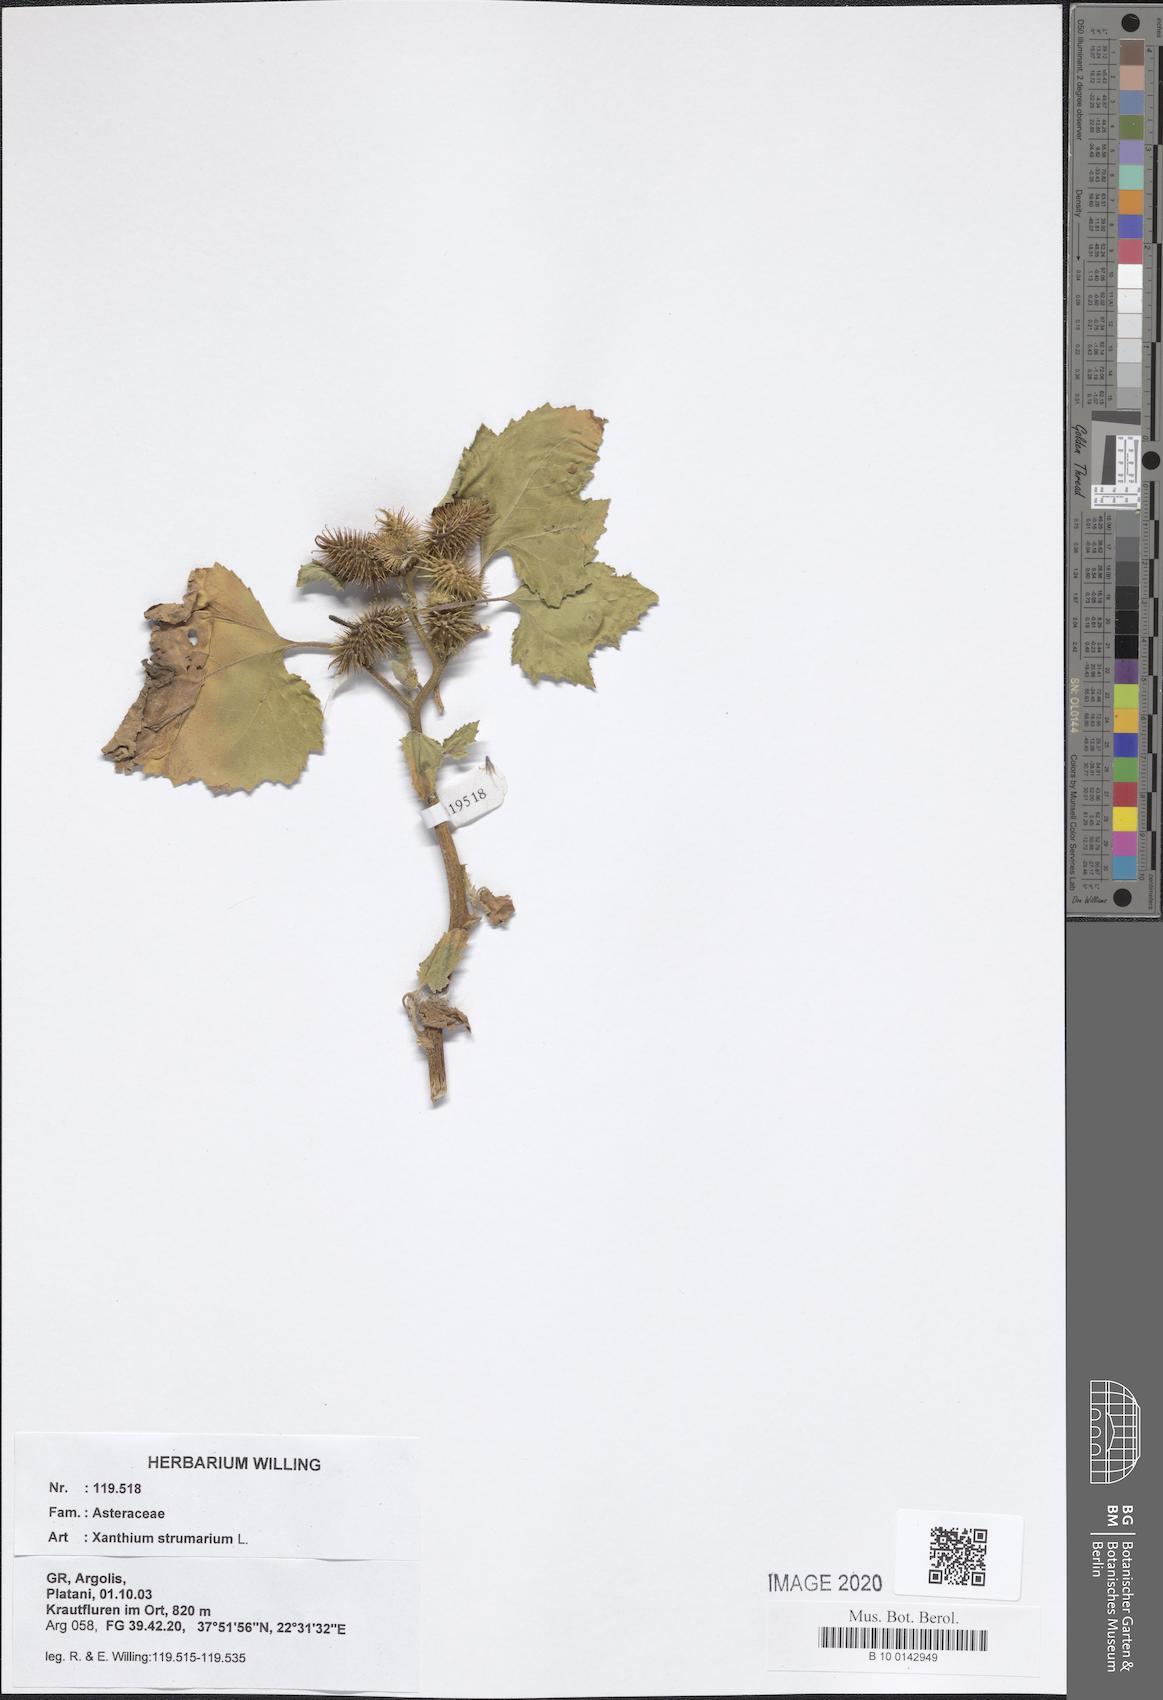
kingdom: Plantae
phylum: Tracheophyta
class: Magnoliopsida
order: Asterales
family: Asteraceae
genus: Xanthium
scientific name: Xanthium strumarium
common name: Rough cocklebur
